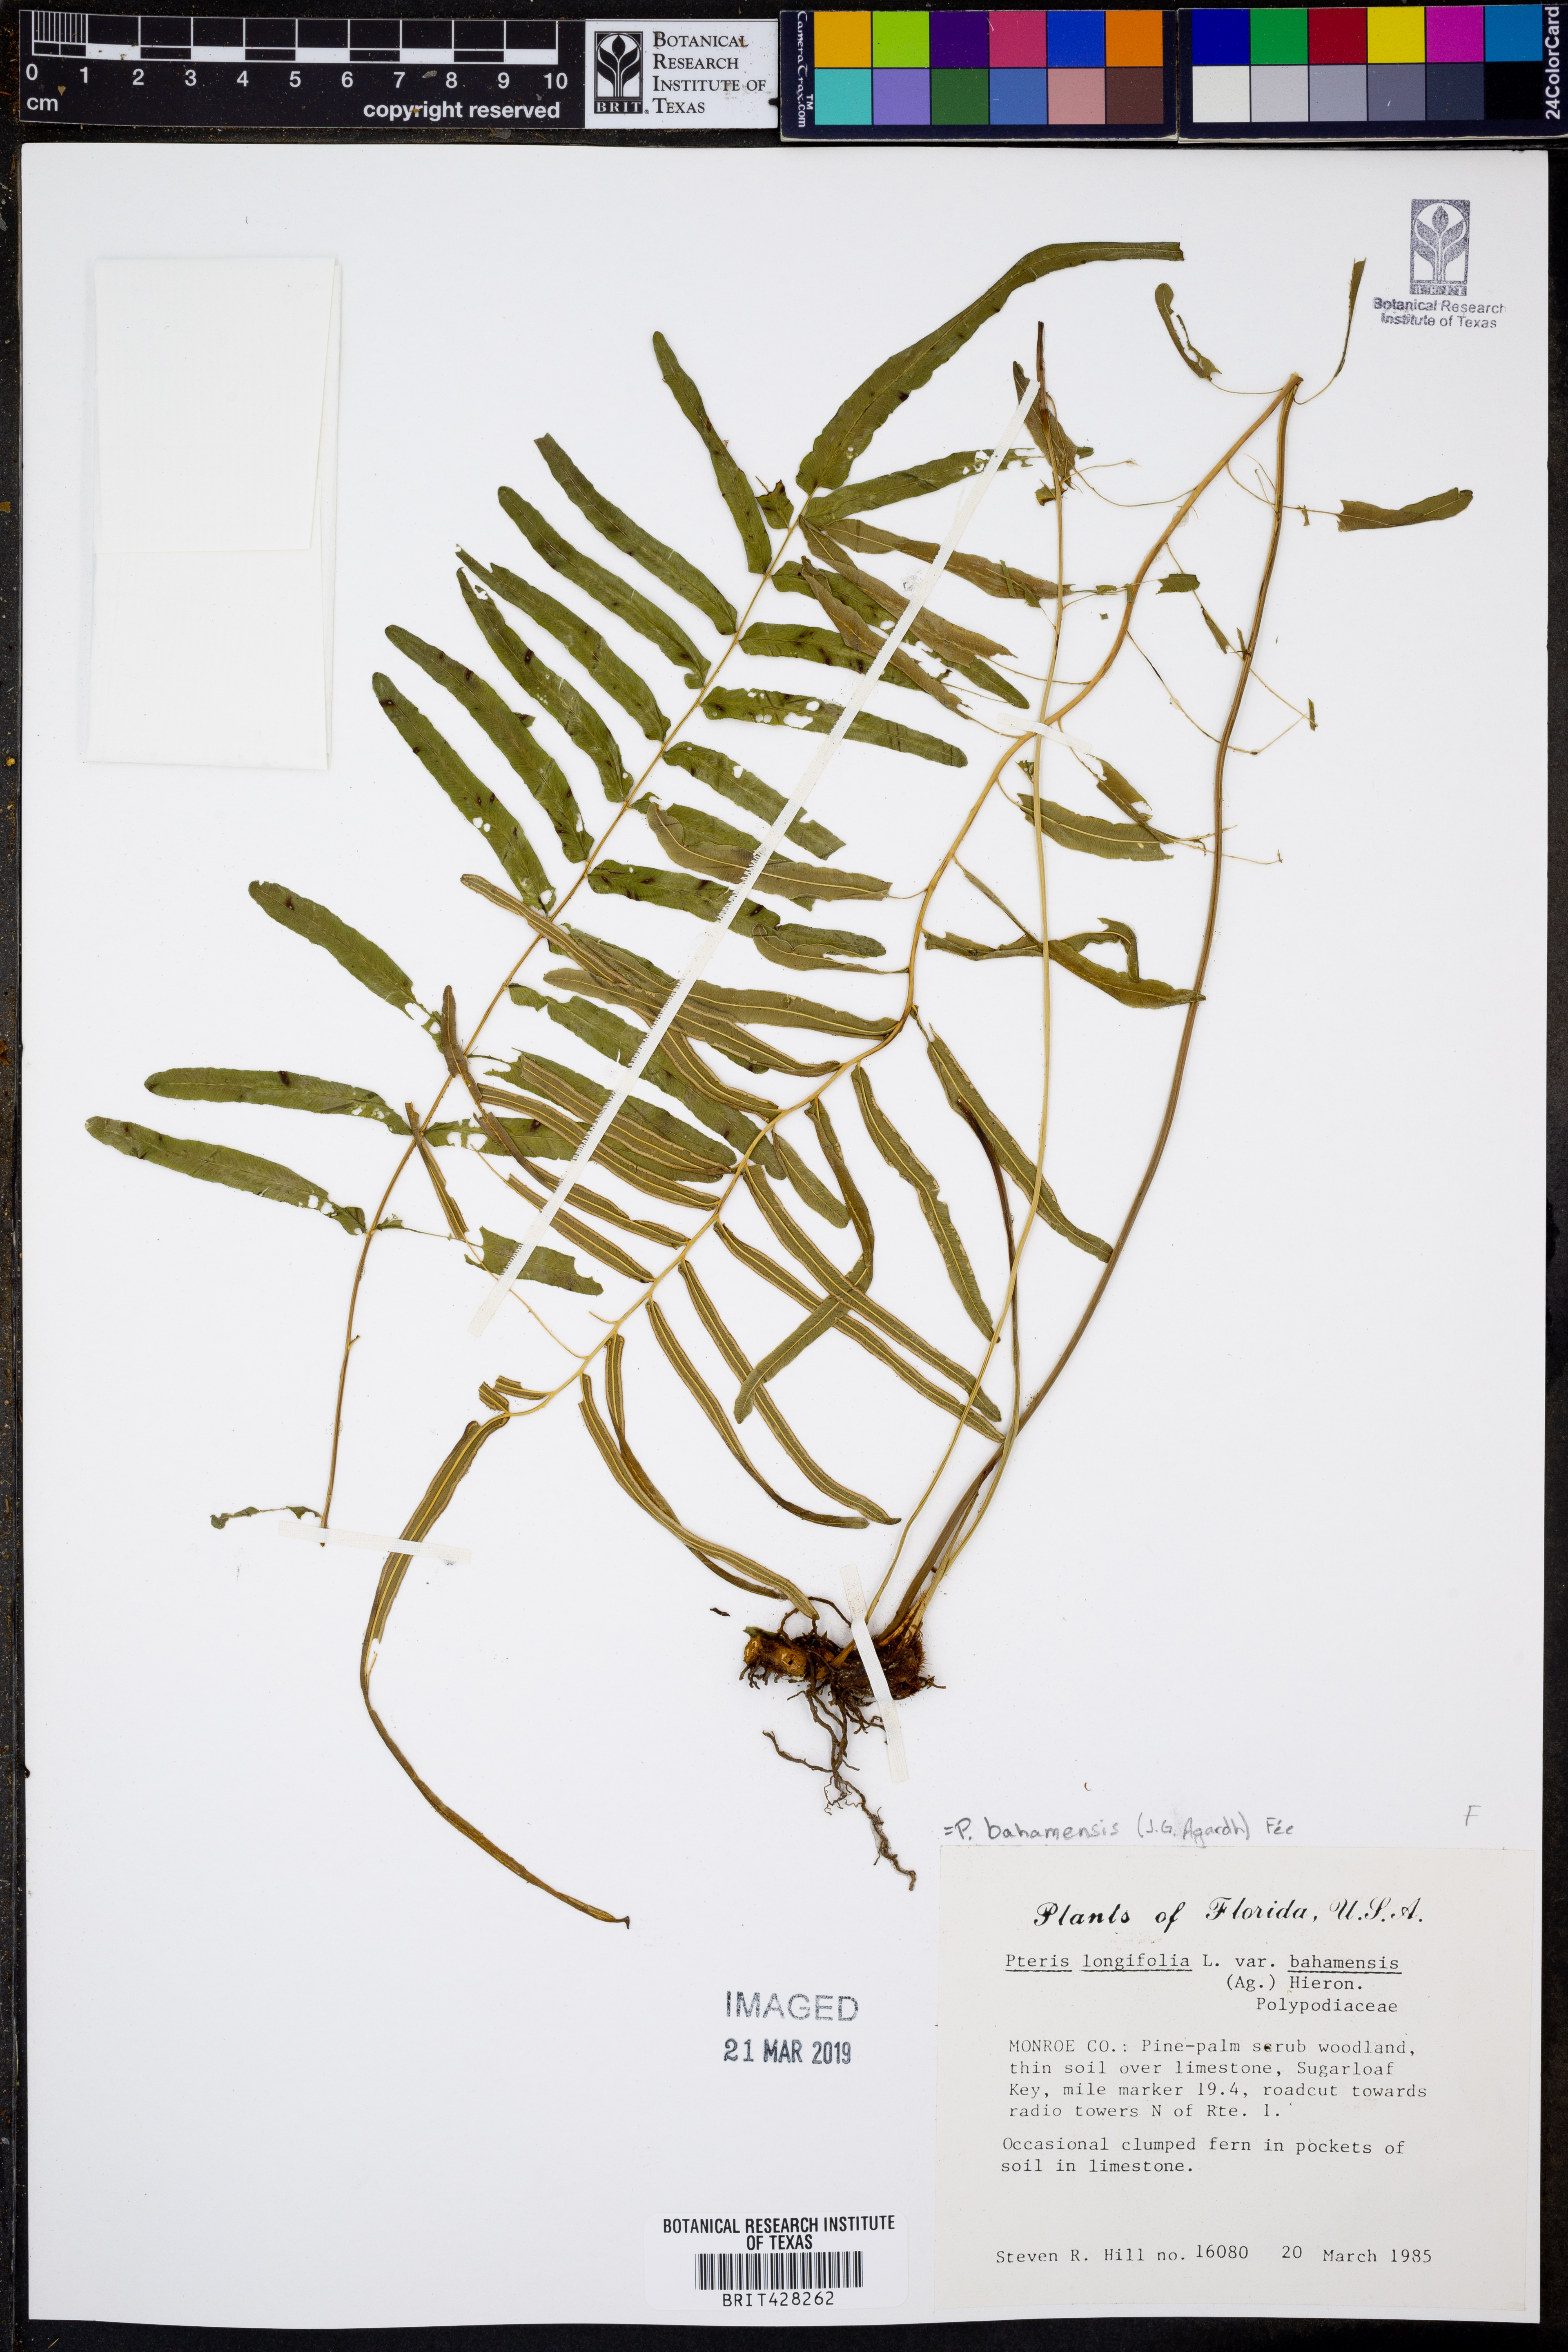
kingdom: Plantae
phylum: Tracheophyta
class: Polypodiopsida
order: Polypodiales
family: Pteridaceae
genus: Pteris
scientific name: Pteris bahamensis
